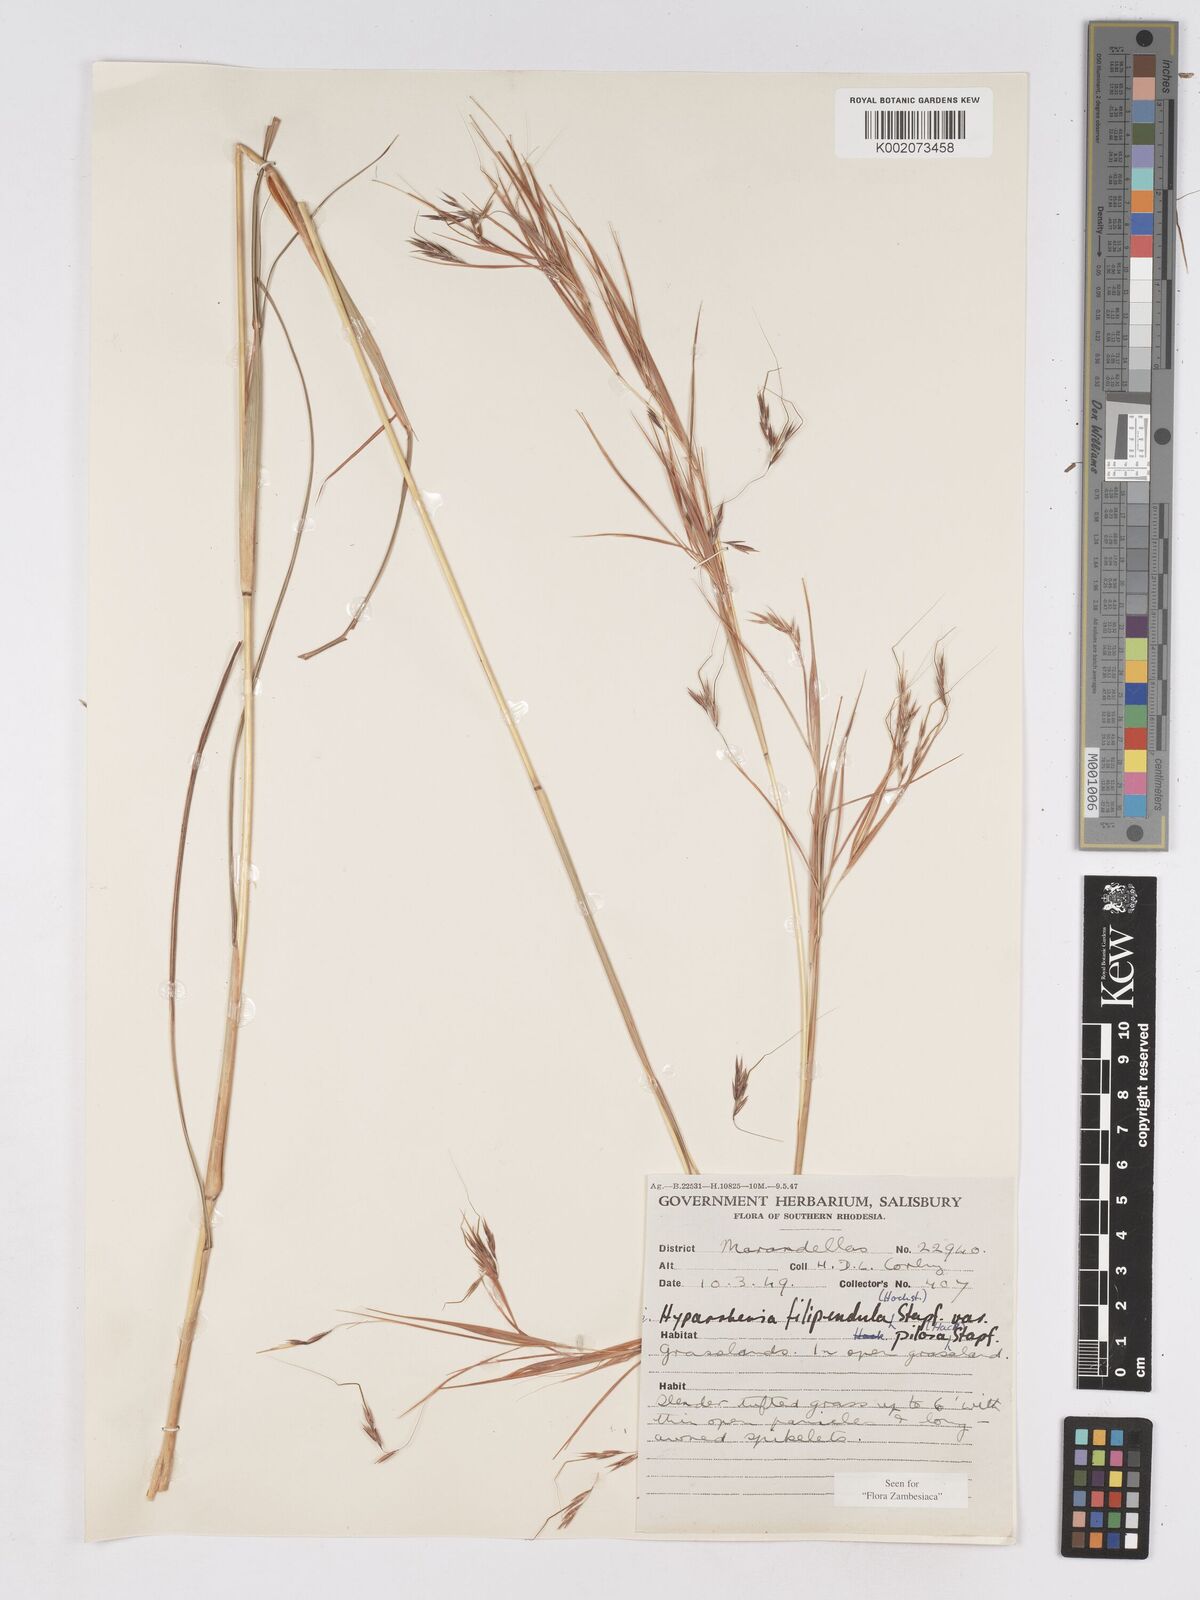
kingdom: Plantae
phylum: Tracheophyta
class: Liliopsida
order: Poales
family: Poaceae
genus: Hyparrhenia
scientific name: Hyparrhenia filipendula
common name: Tambookie grass
